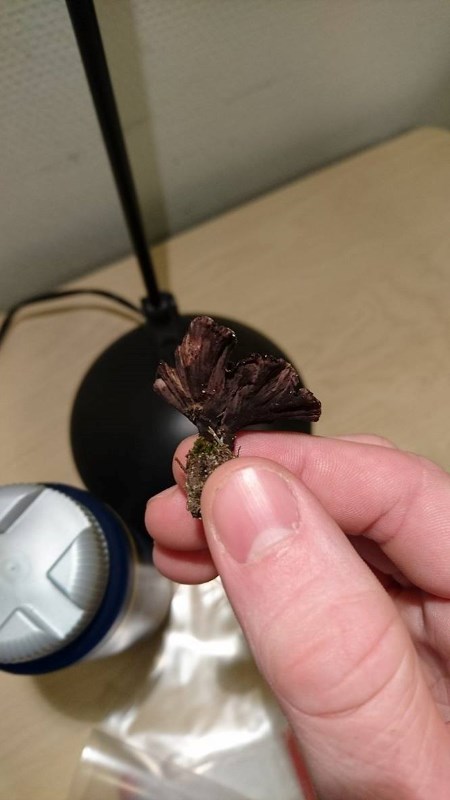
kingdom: Fungi
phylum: Basidiomycota
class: Agaricomycetes
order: Thelephorales
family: Thelephoraceae
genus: Thelephora
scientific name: Thelephora caryophyllea
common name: tragt-frynsesvamp
